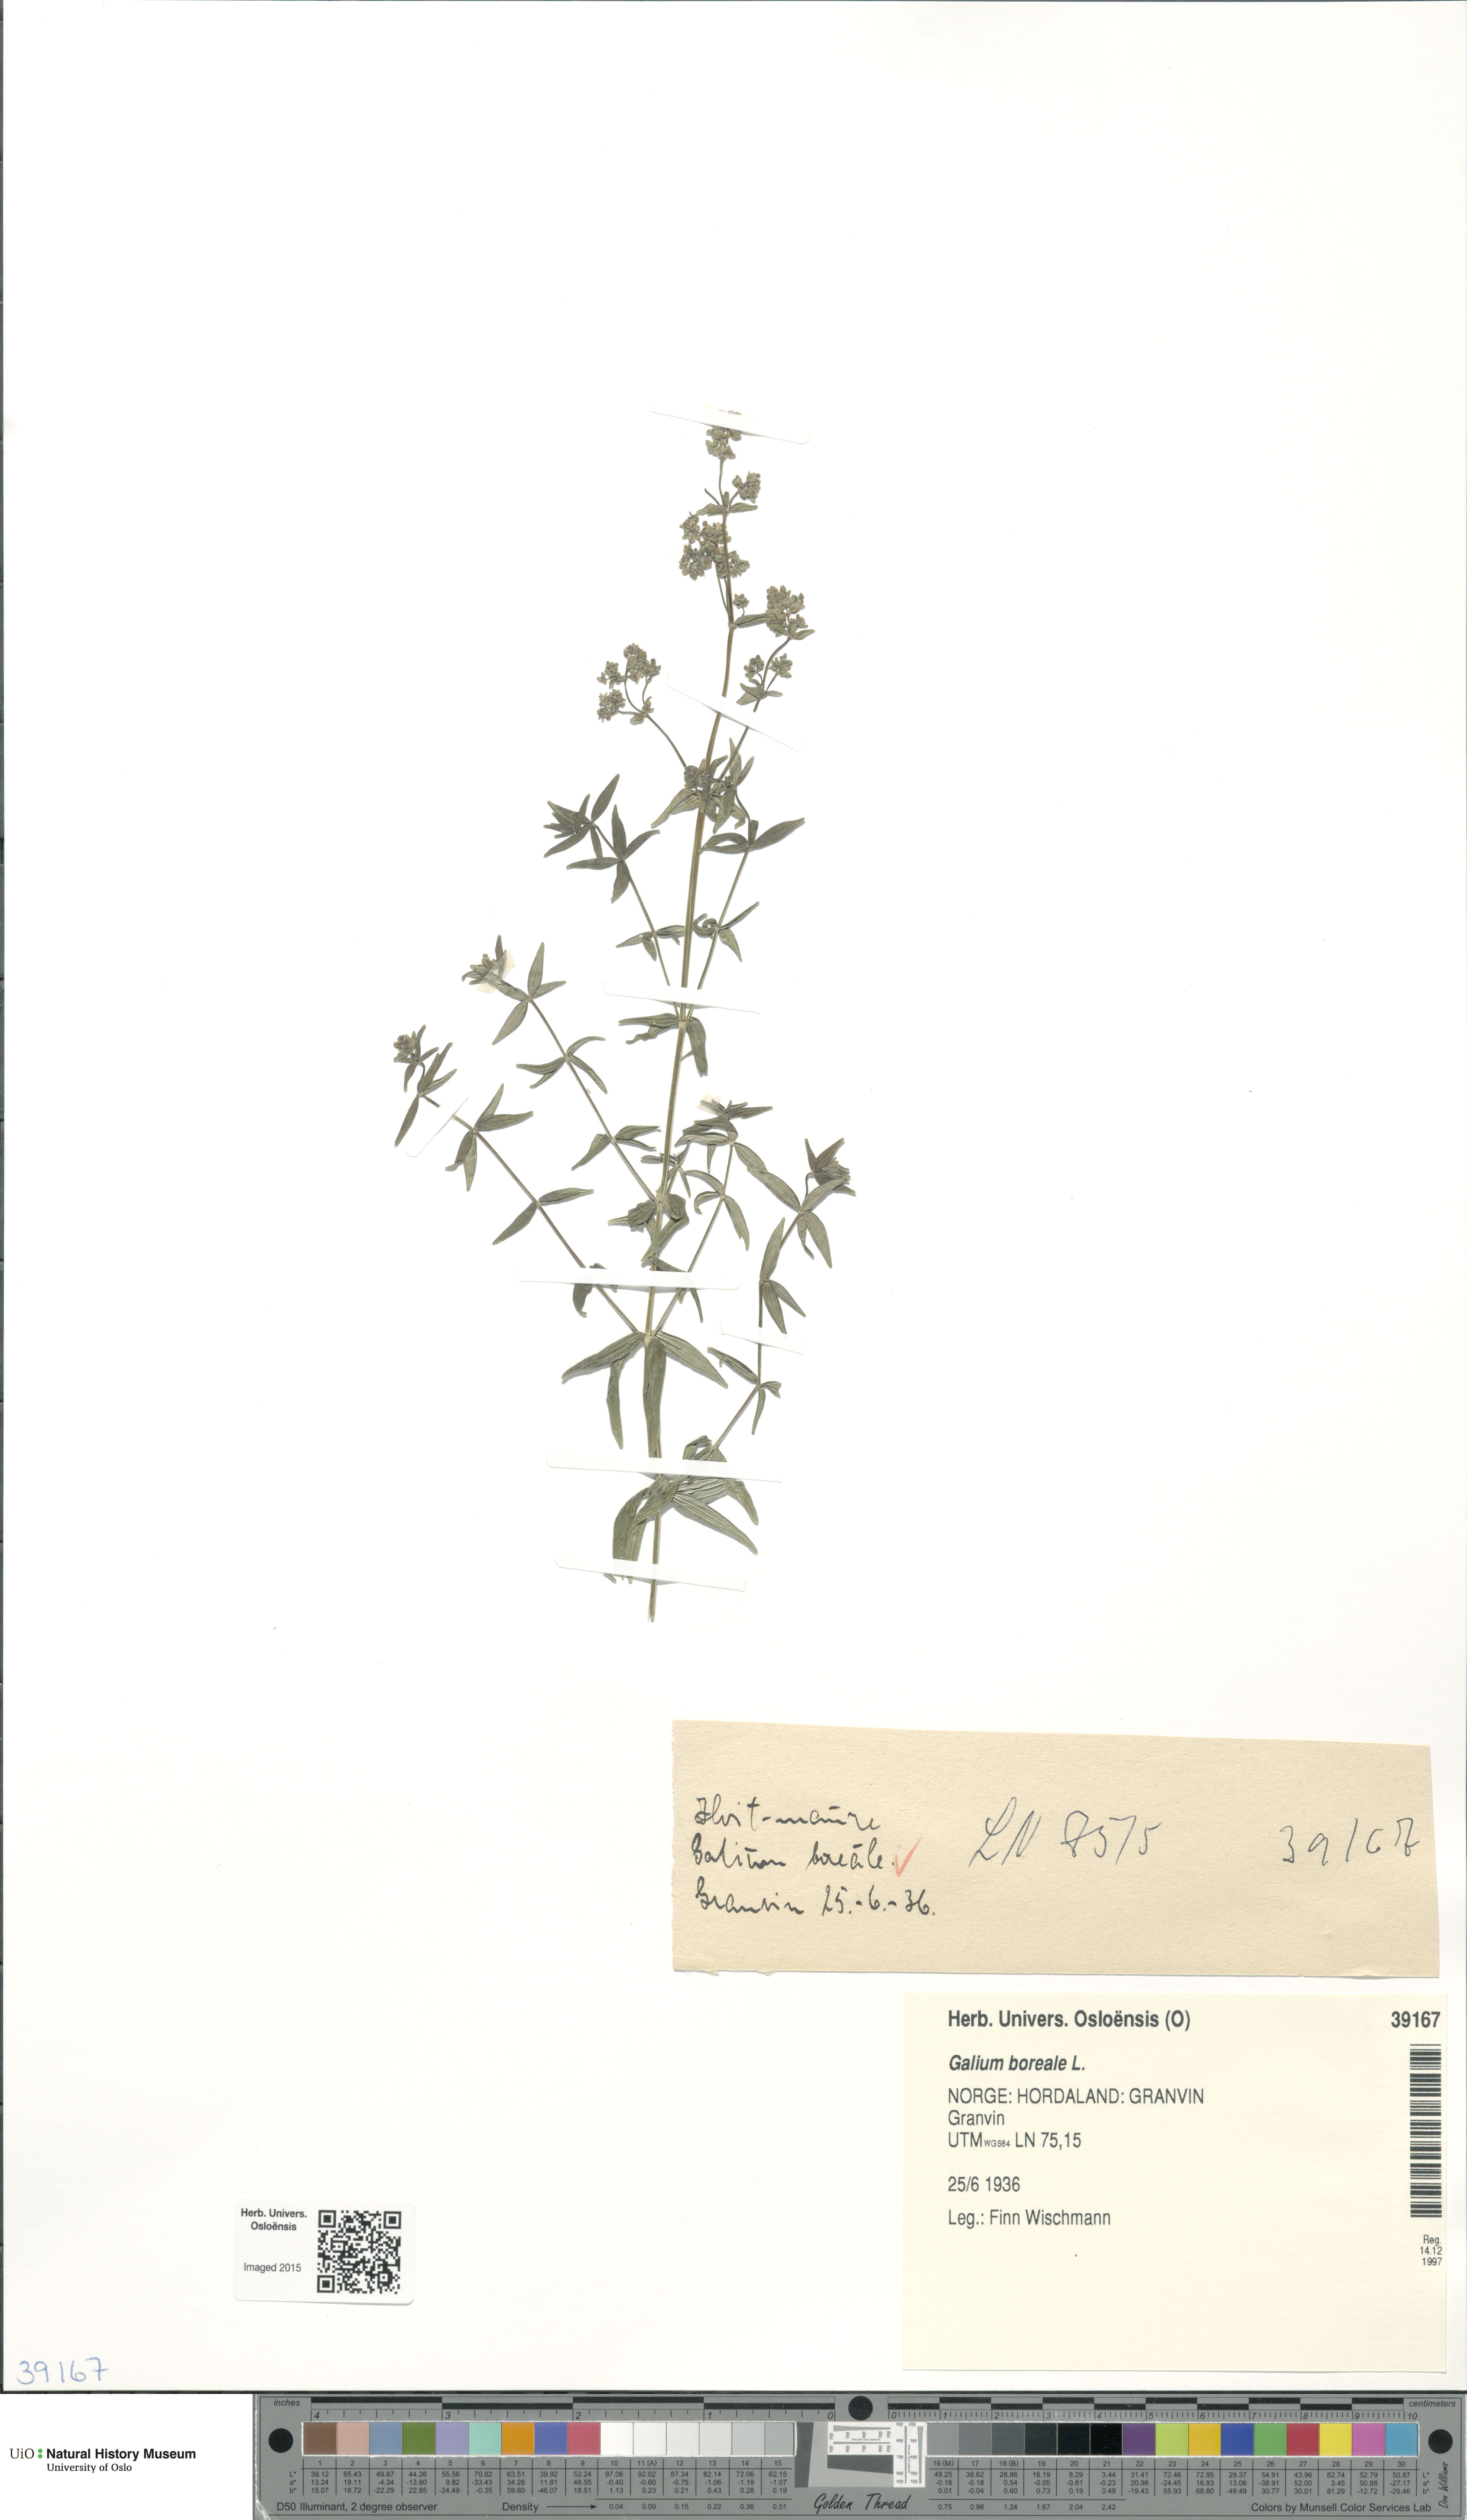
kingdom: Plantae
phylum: Tracheophyta
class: Magnoliopsida
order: Gentianales
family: Rubiaceae
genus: Galium
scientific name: Galium boreale
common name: Northern bedstraw
